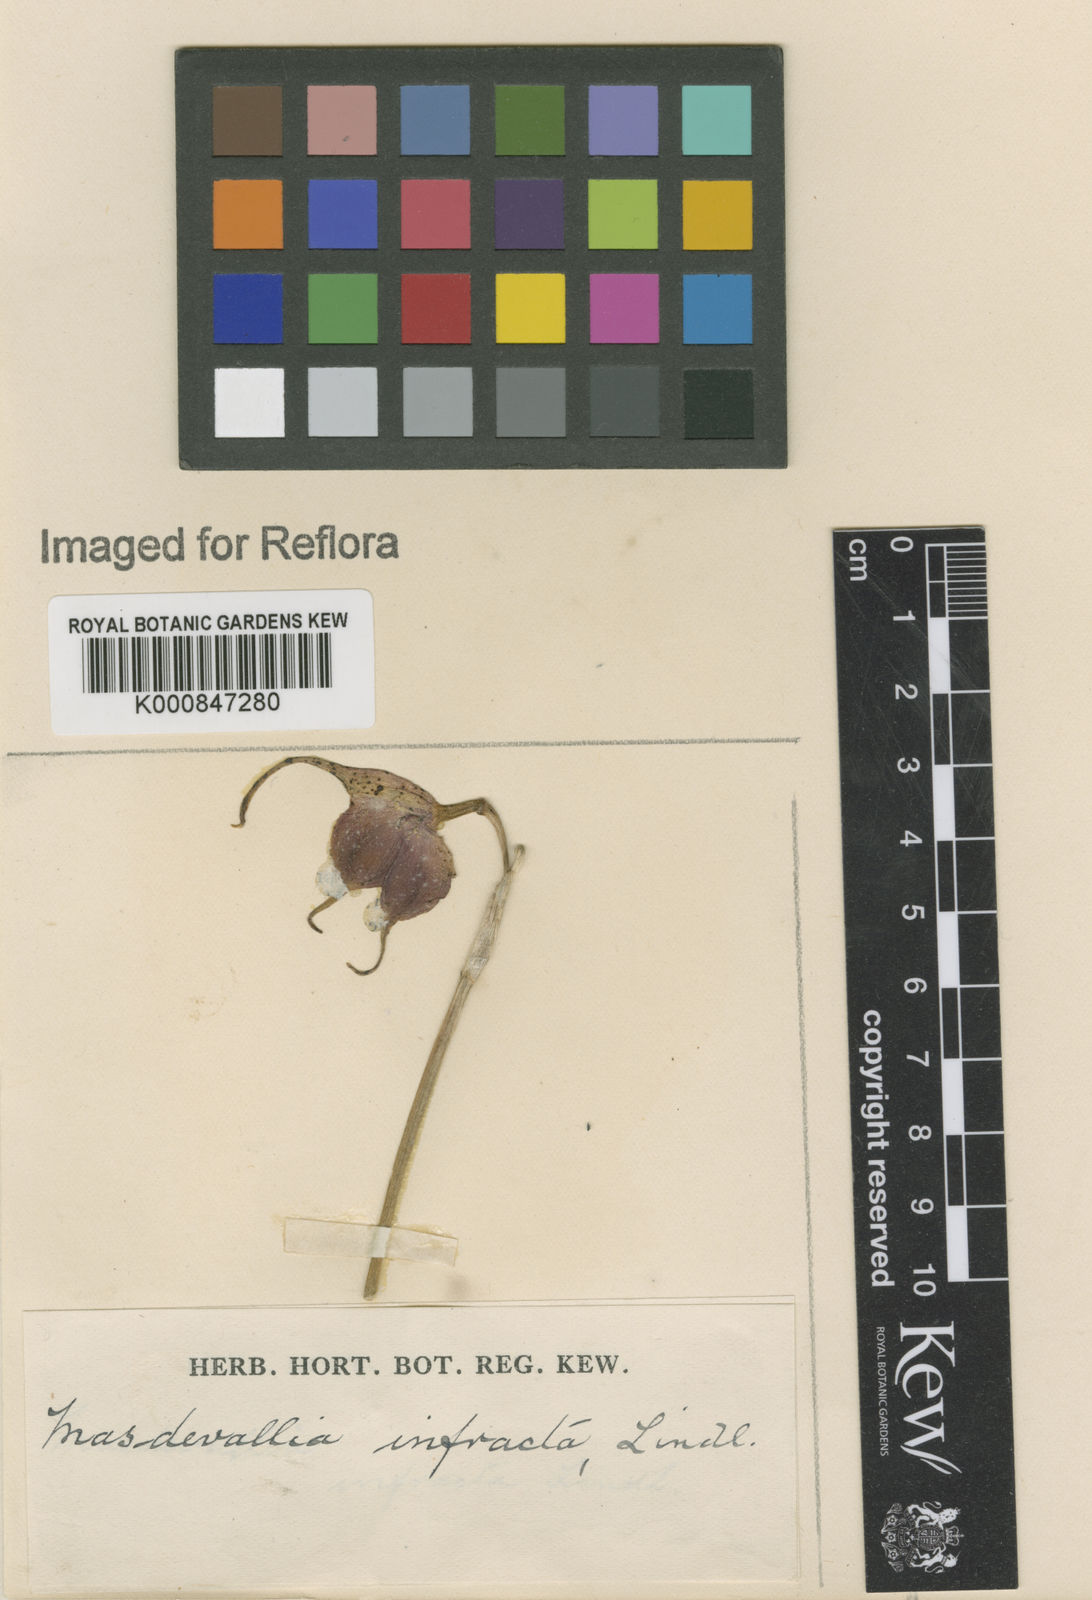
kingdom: Plantae
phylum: Tracheophyta
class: Liliopsida
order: Asparagales
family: Orchidaceae
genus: Masdevallia
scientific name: Masdevallia infracta
